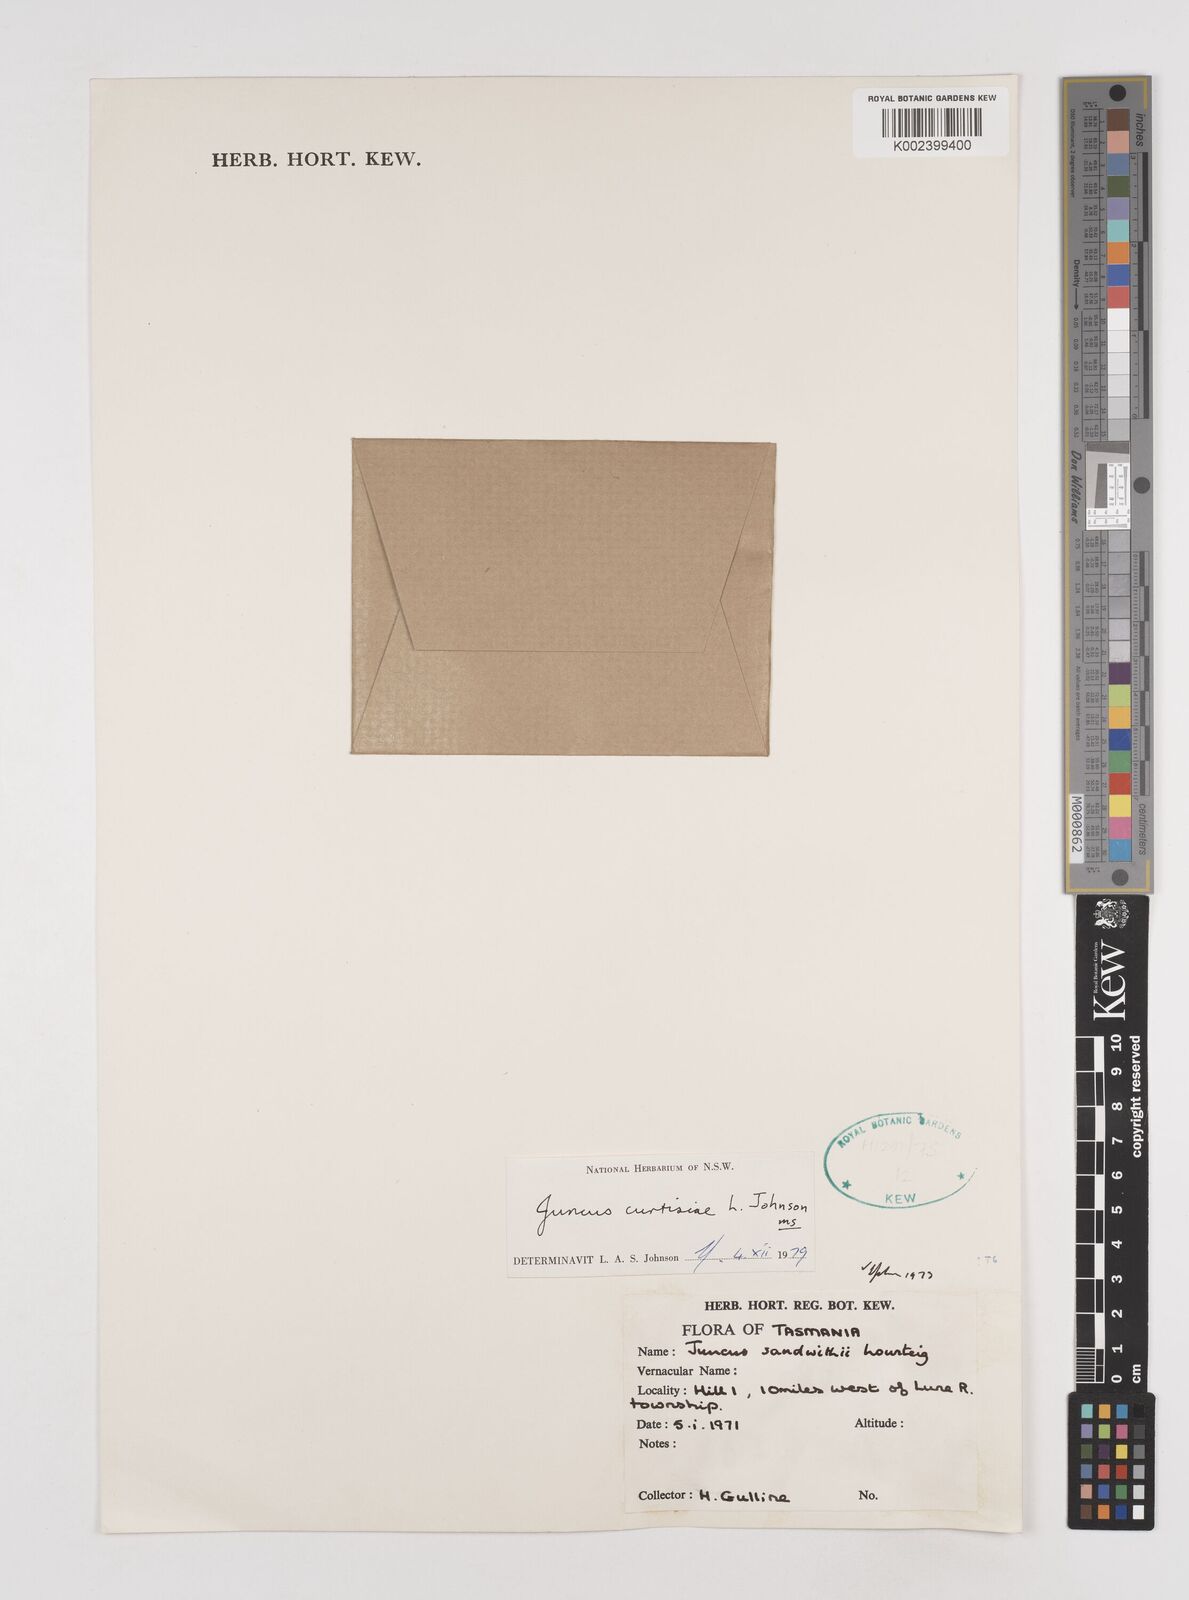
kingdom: Plantae
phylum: Tracheophyta
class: Liliopsida
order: Poales
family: Juncaceae
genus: Juncus
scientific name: Juncus curtisiae
